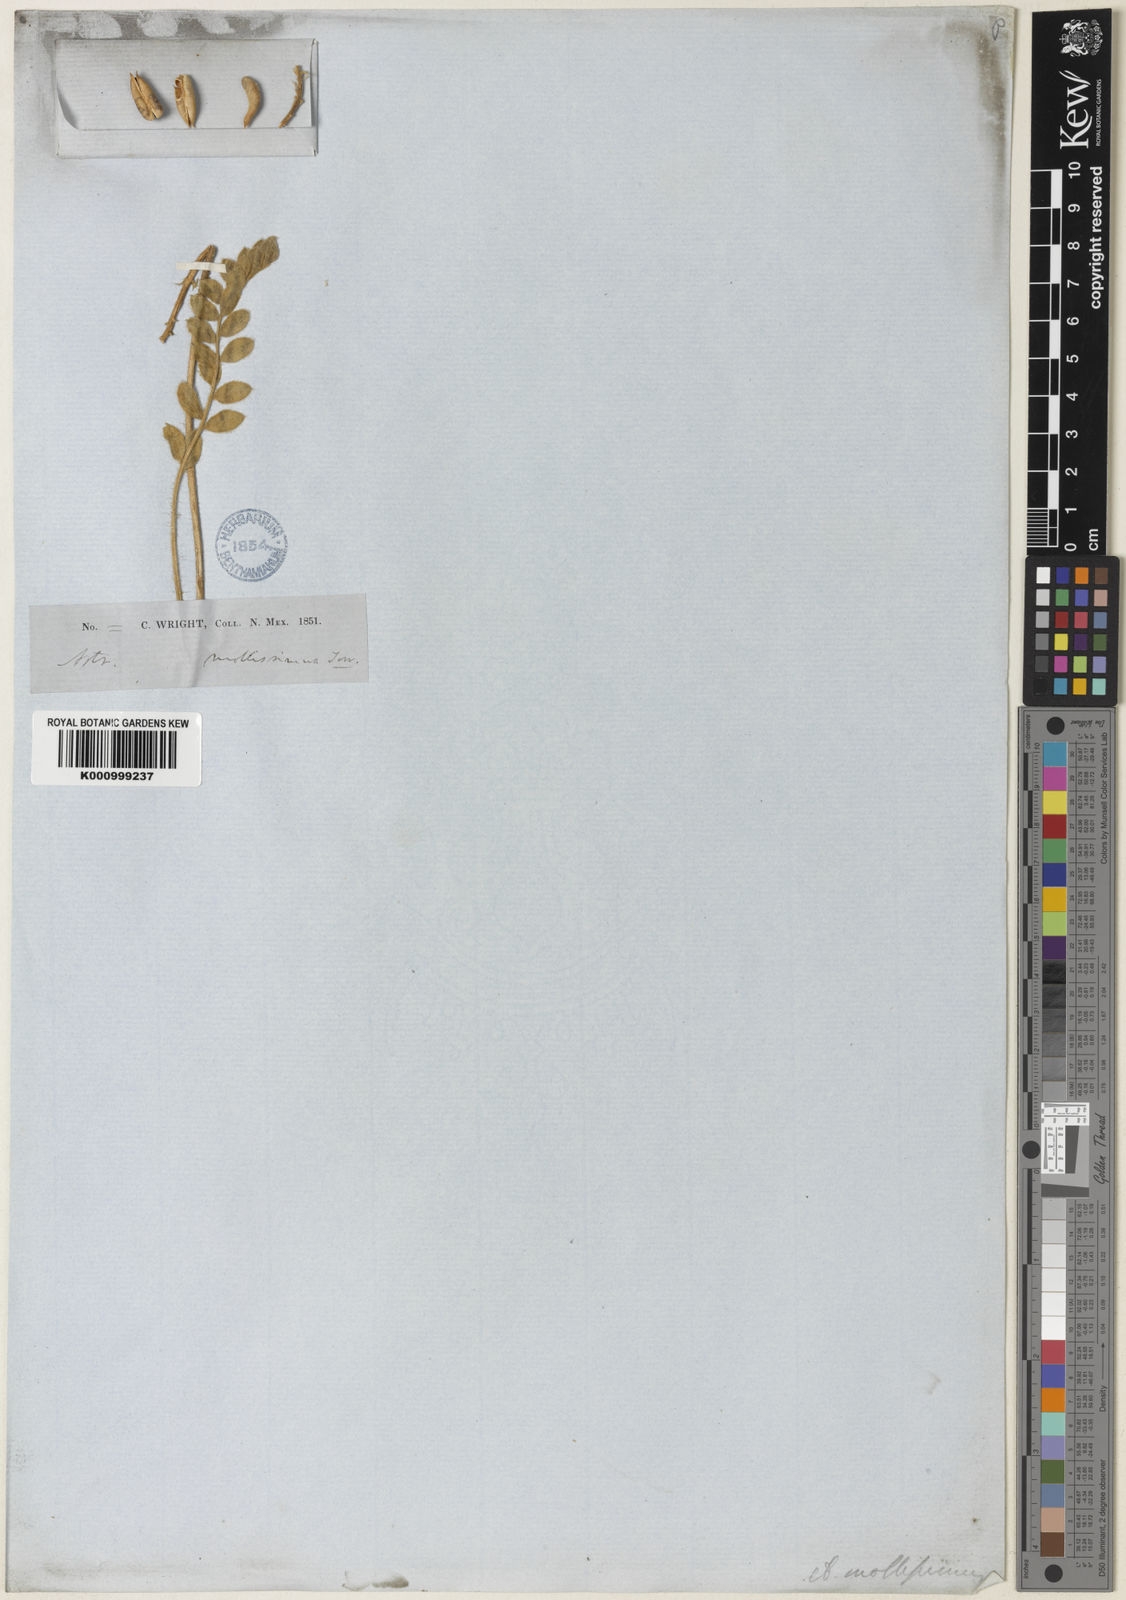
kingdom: Plantae
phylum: Tracheophyta
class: Magnoliopsida
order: Fabales
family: Fabaceae
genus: Astragalus
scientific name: Astragalus mollissimus
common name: Woolly locoweed
